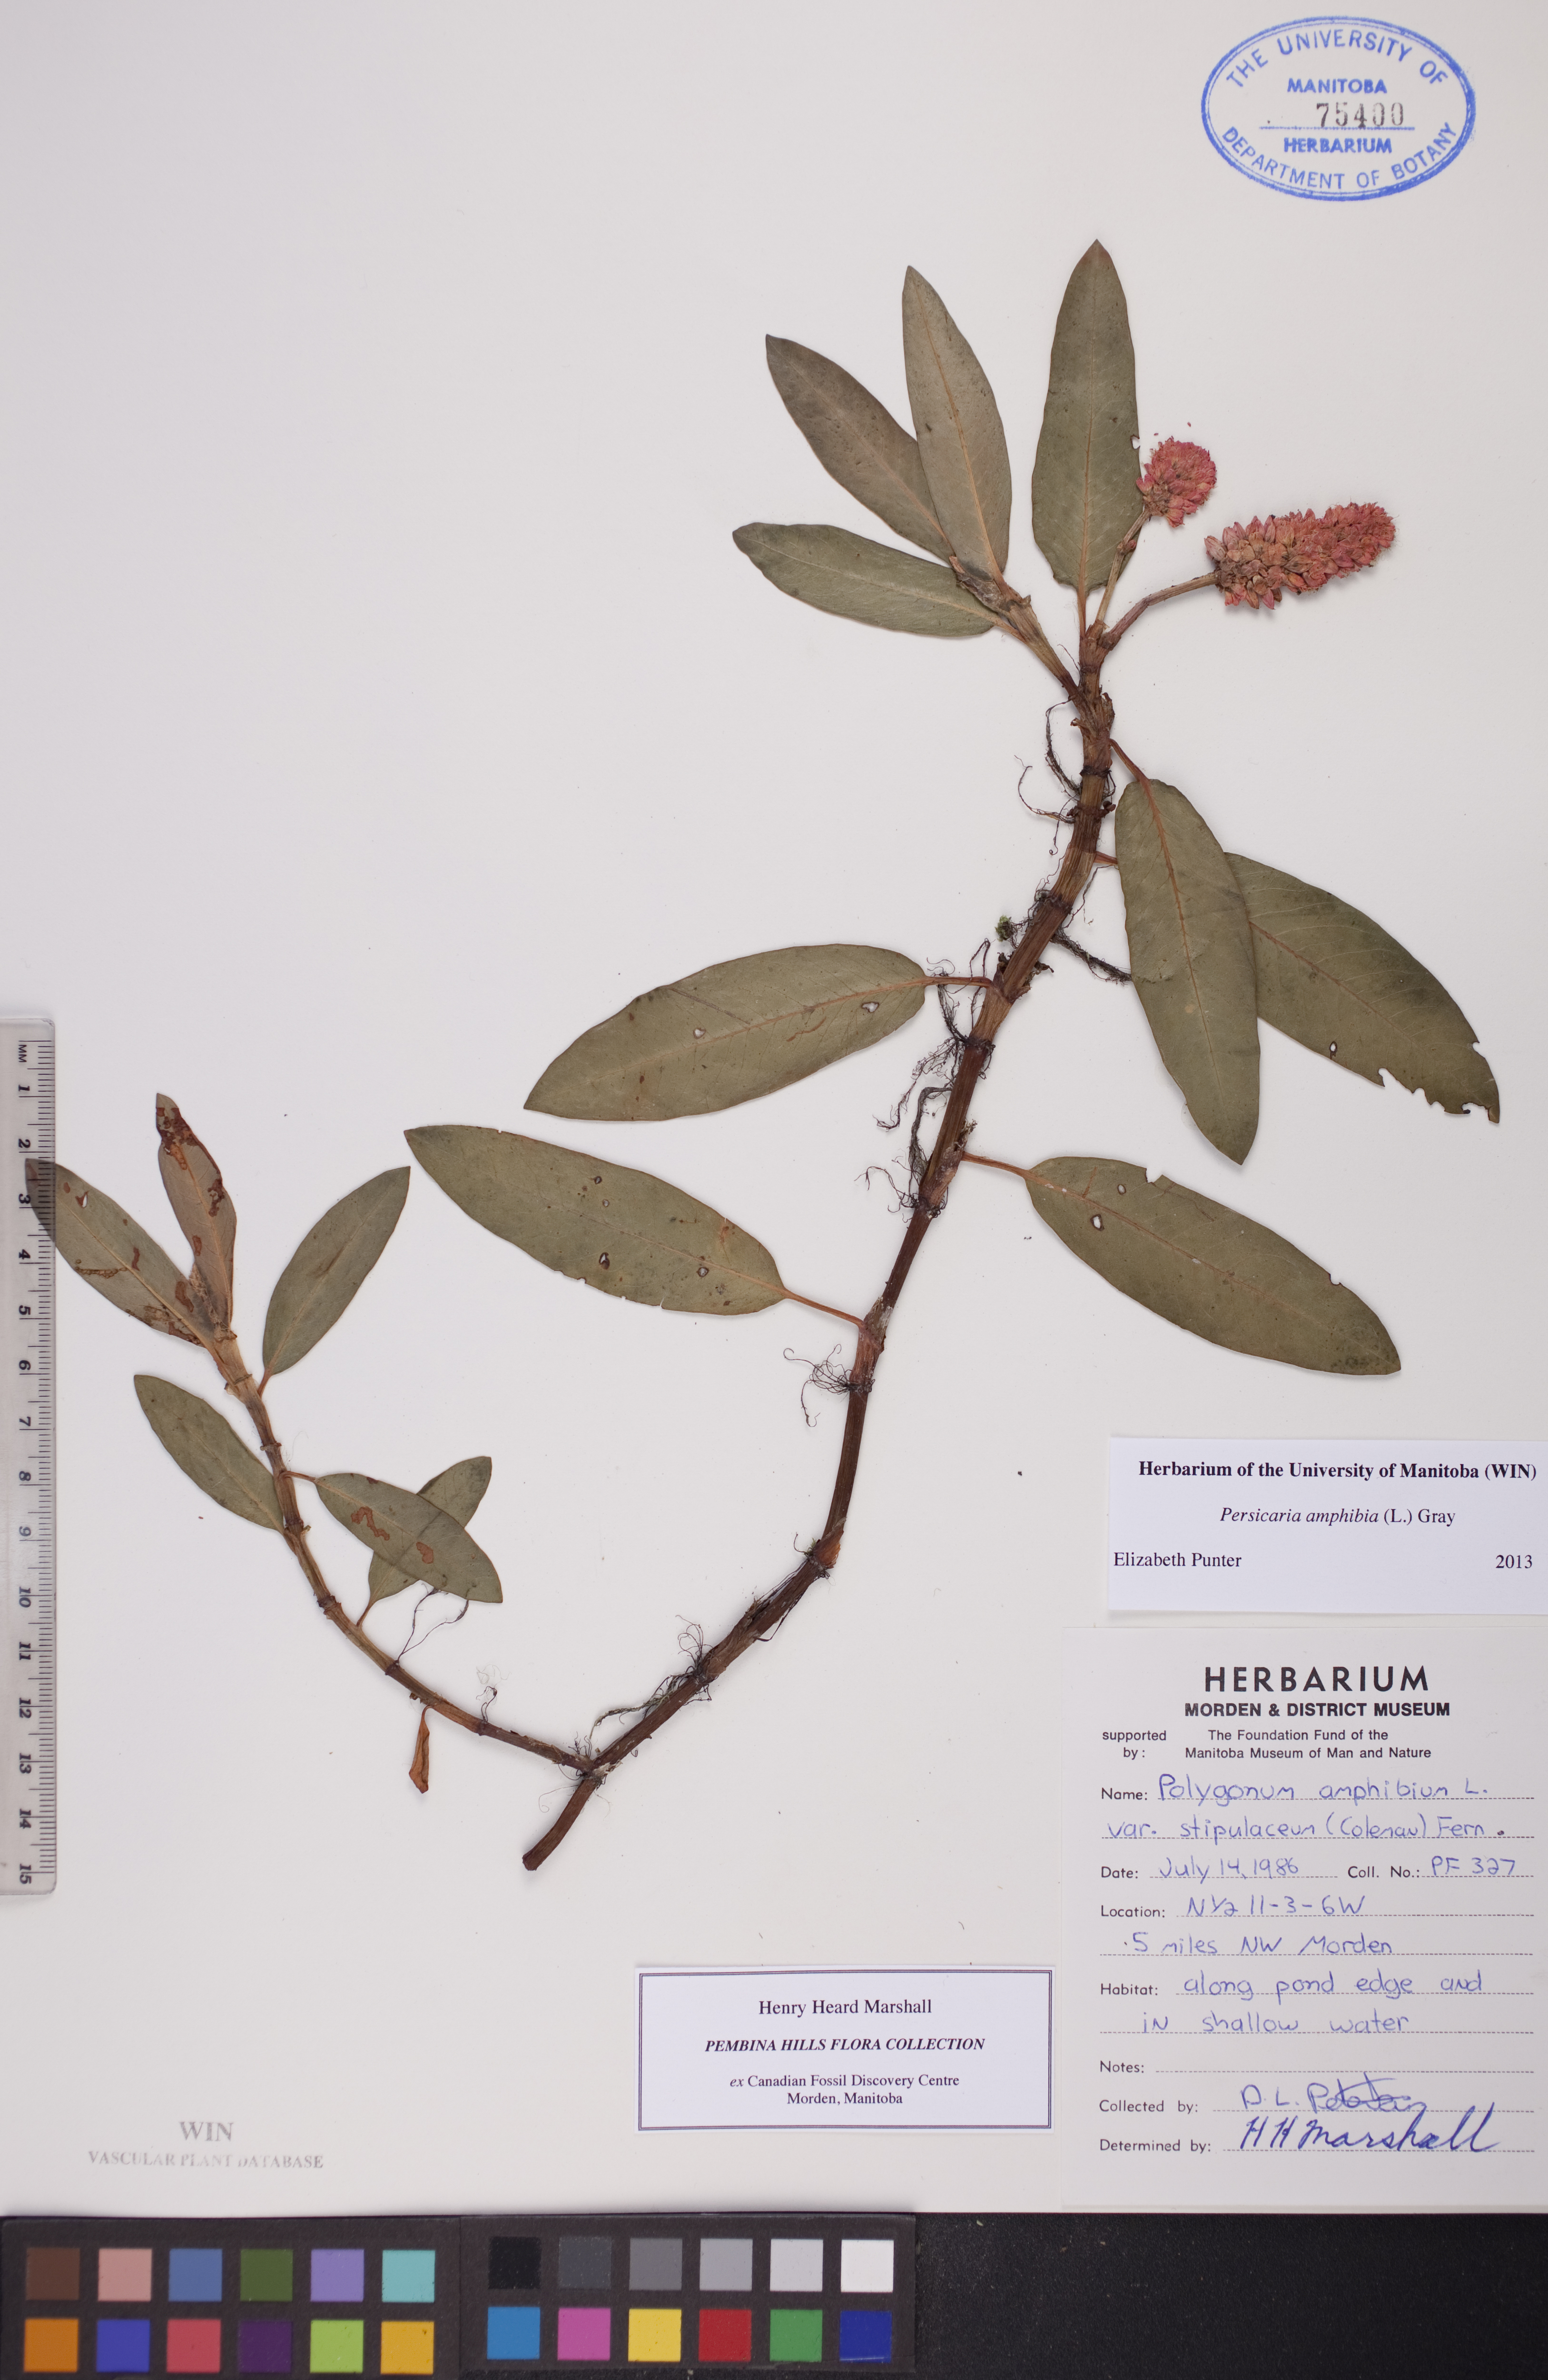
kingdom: Plantae
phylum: Tracheophyta
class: Magnoliopsida
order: Caryophyllales
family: Polygonaceae
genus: Persicaria
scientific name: Persicaria amphibia
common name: Amphibious bistort
